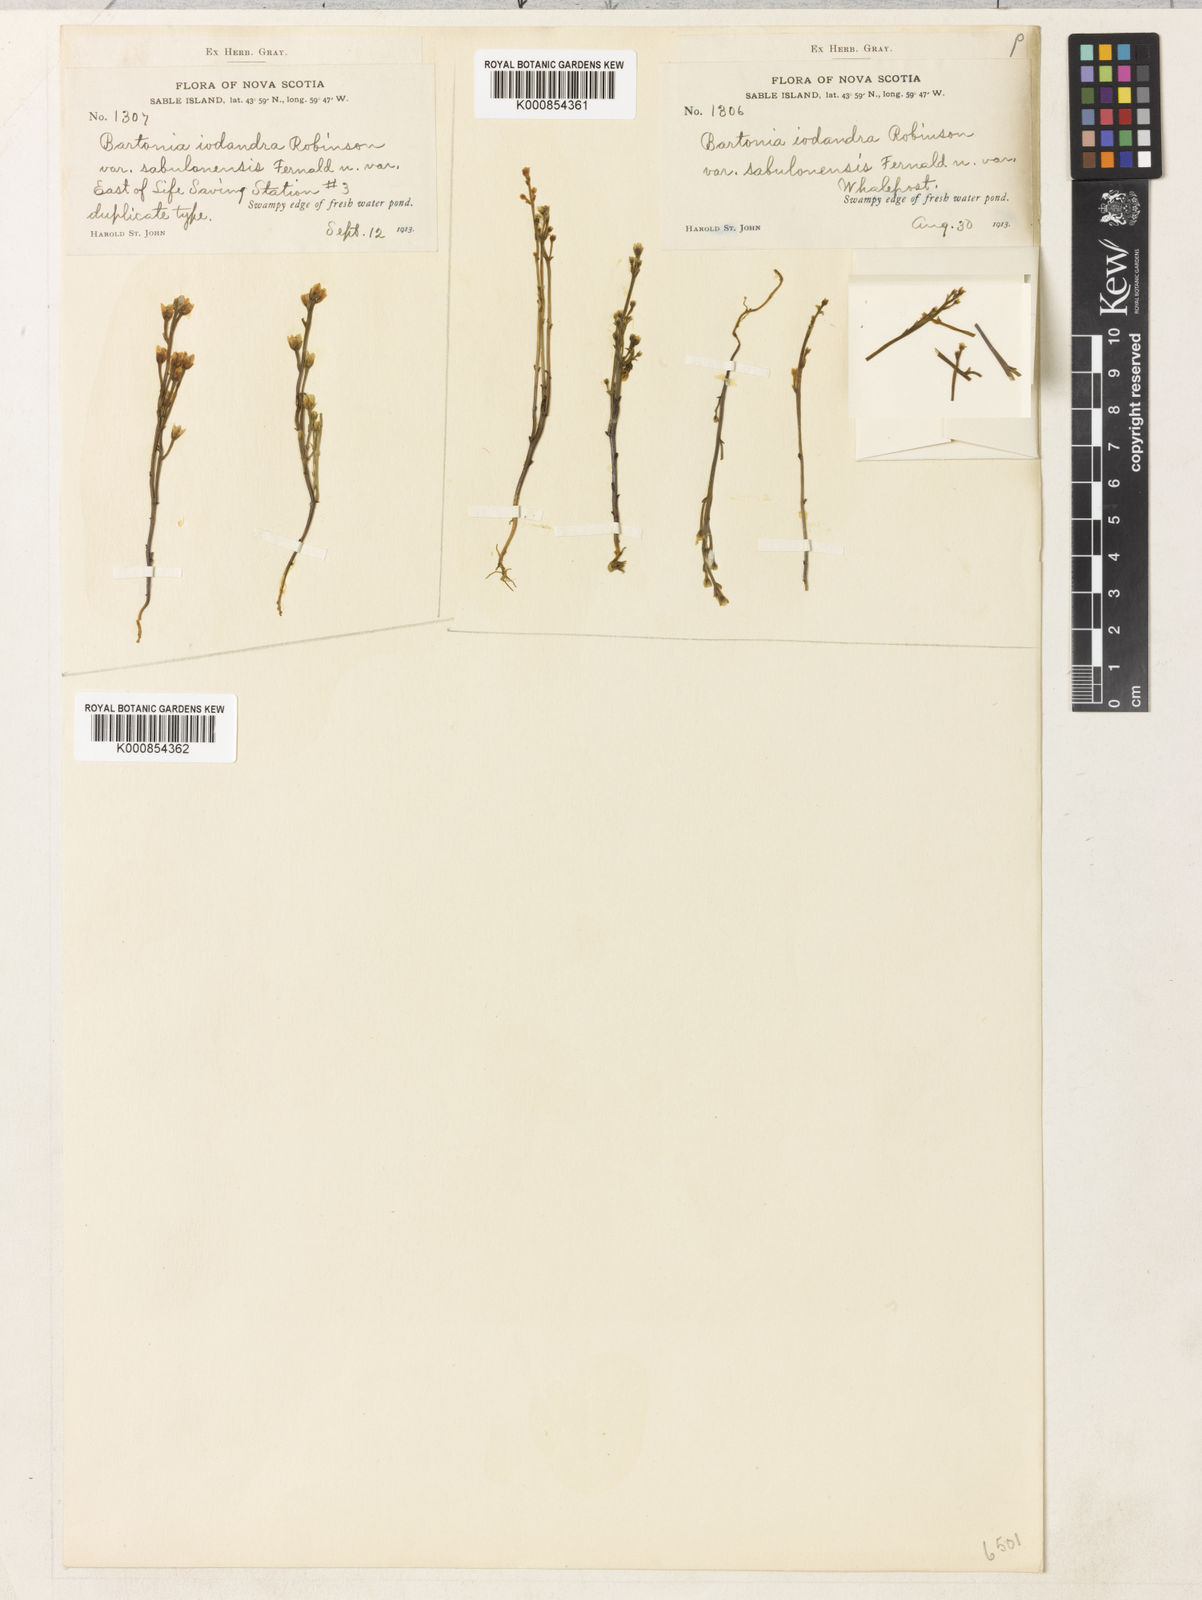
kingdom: Plantae
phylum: Tracheophyta
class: Magnoliopsida
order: Gentianales
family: Gentianaceae
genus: Bartonia
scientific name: Bartonia paniculata
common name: Branched bartonia
